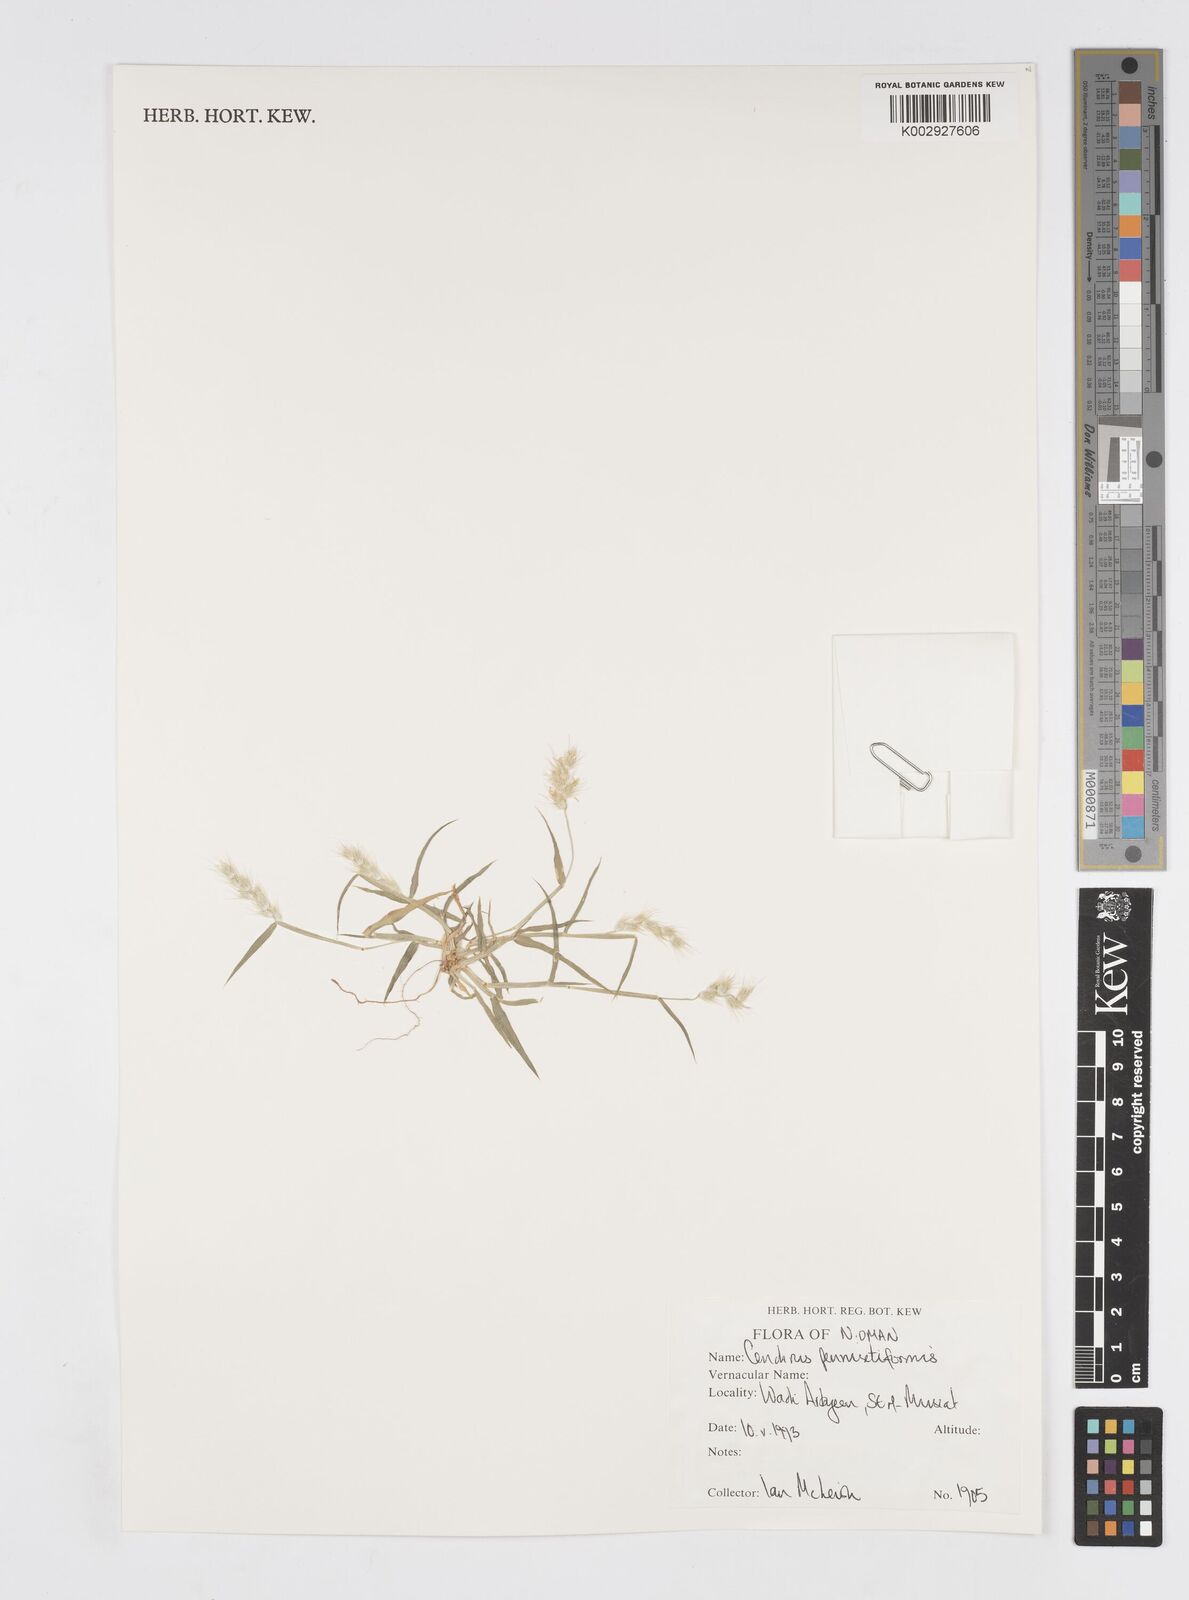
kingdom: Plantae
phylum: Tracheophyta
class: Liliopsida
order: Poales
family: Poaceae
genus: Cenchrus
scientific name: Cenchrus pennisetiformis
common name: Cloncurry
